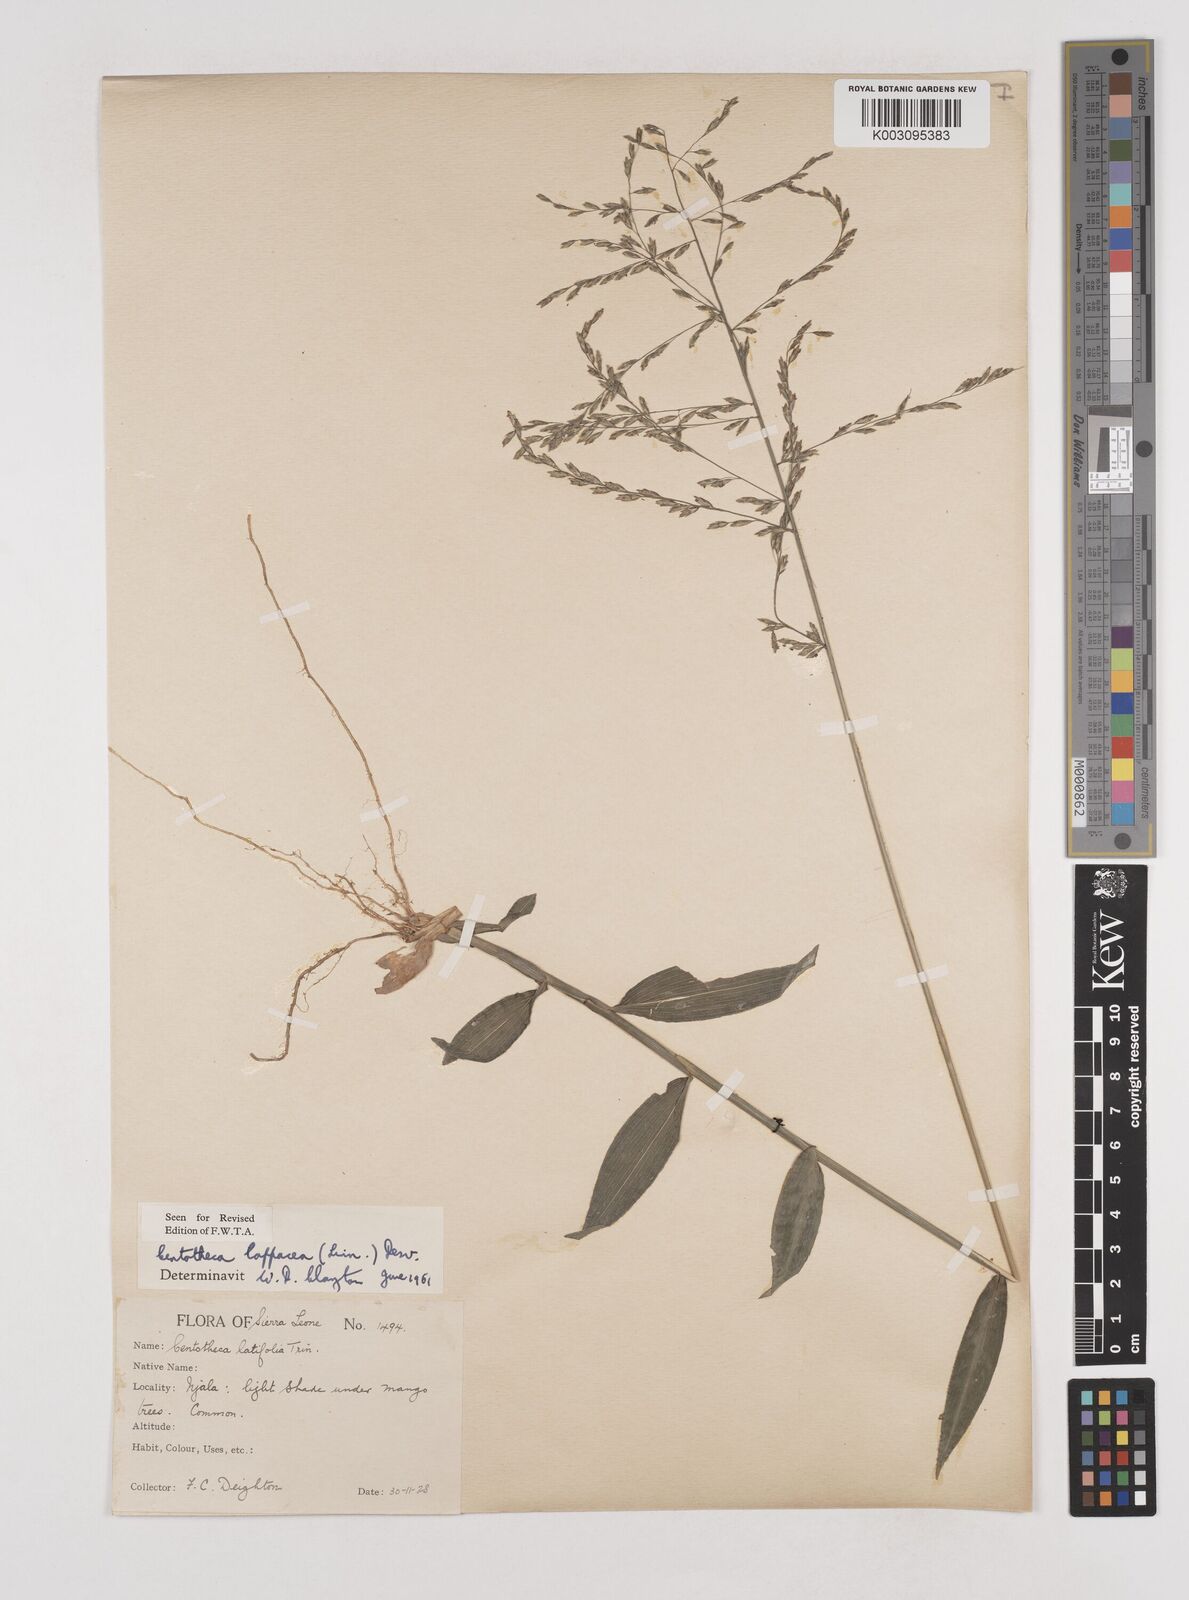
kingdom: Plantae
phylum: Tracheophyta
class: Liliopsida
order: Poales
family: Poaceae
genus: Centotheca
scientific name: Centotheca lappacea
